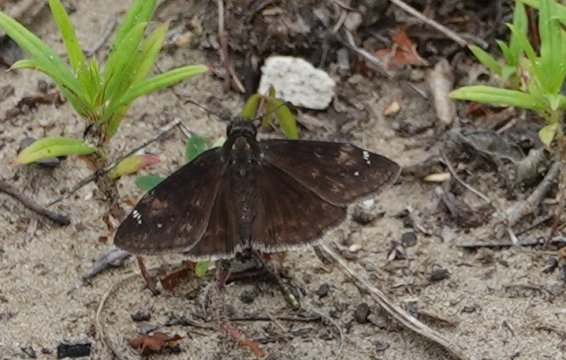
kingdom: Animalia
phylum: Arthropoda
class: Insecta
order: Lepidoptera
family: Hesperiidae
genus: Erynnis
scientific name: Erynnis zarucco
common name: Zarucco Duskywing
